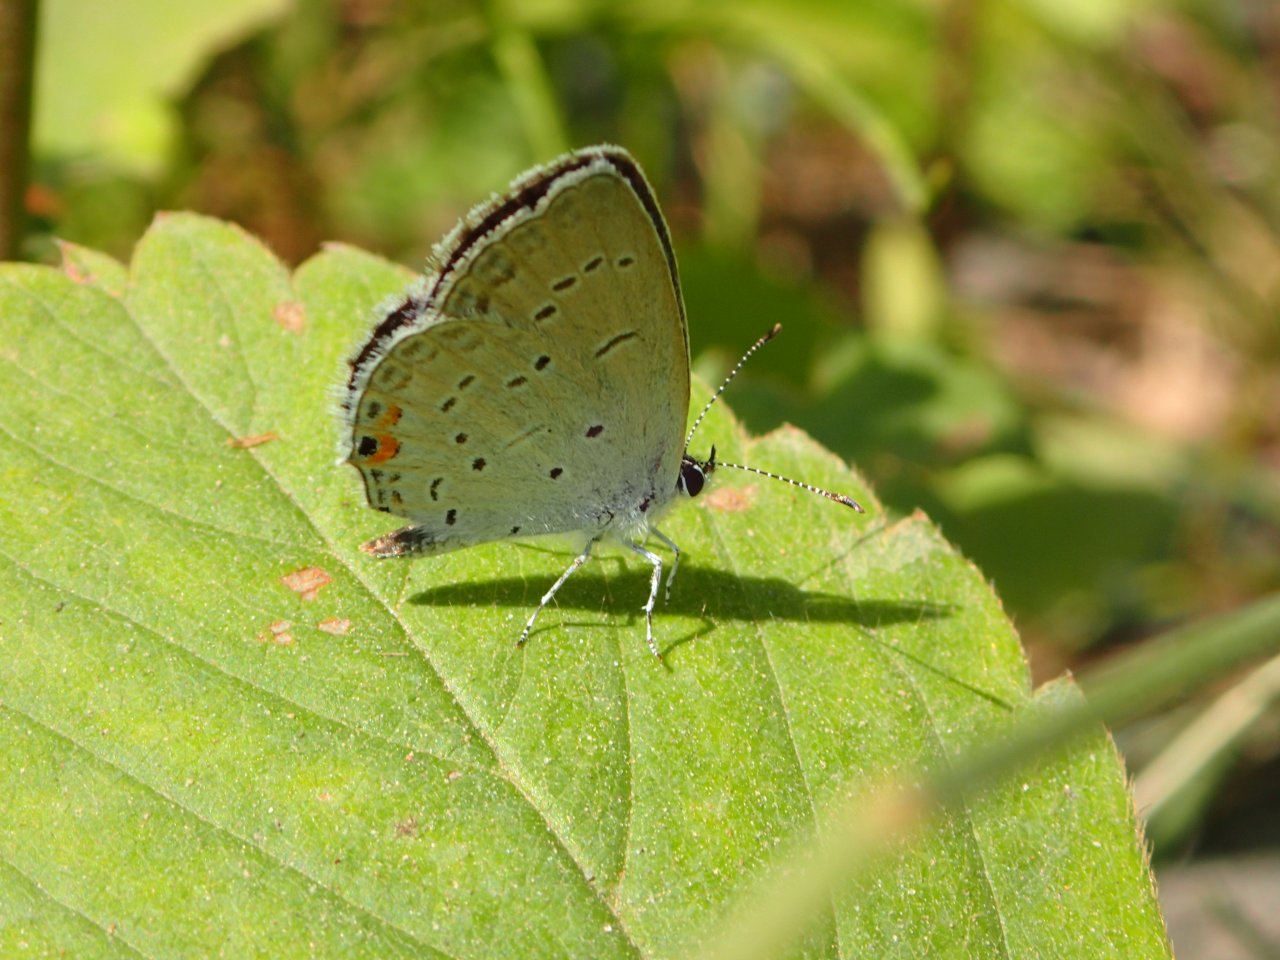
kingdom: Animalia
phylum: Arthropoda
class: Insecta
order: Lepidoptera
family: Lycaenidae
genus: Elkalyce
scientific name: Elkalyce comyntas
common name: Eastern Tailed-Blue
